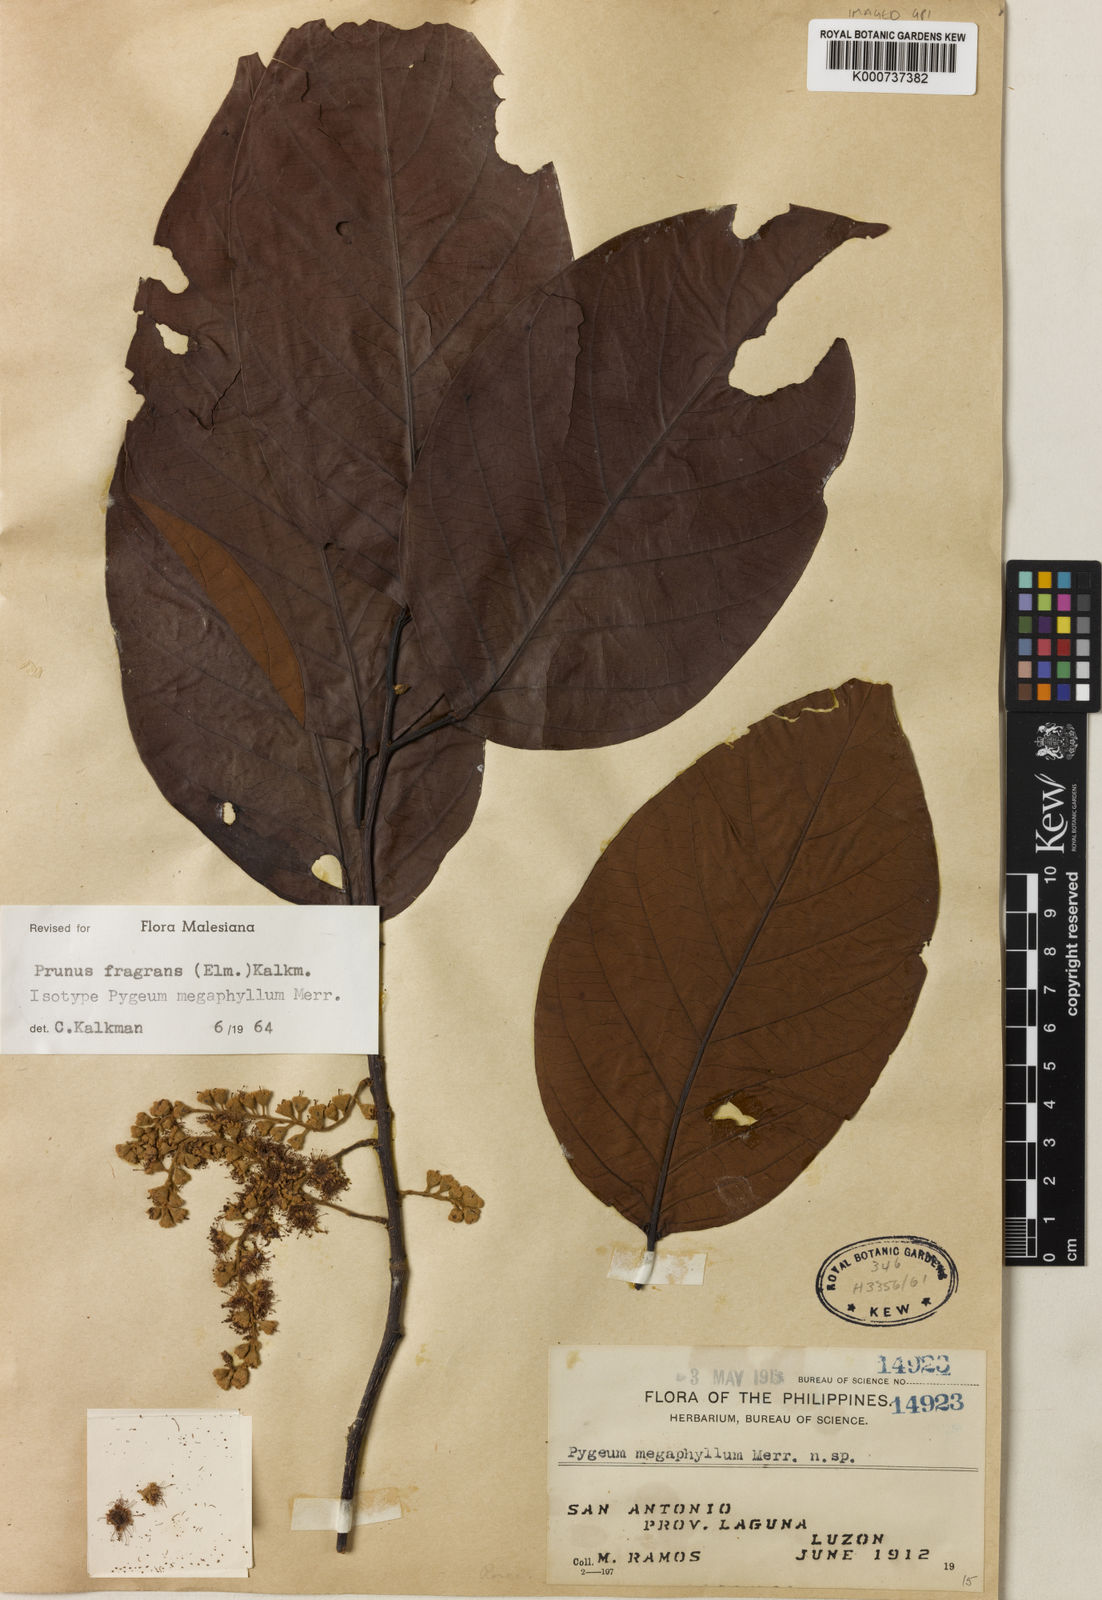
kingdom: Plantae
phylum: Tracheophyta
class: Magnoliopsida
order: Rosales
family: Rosaceae
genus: Prunus
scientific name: Prunus fragrans
